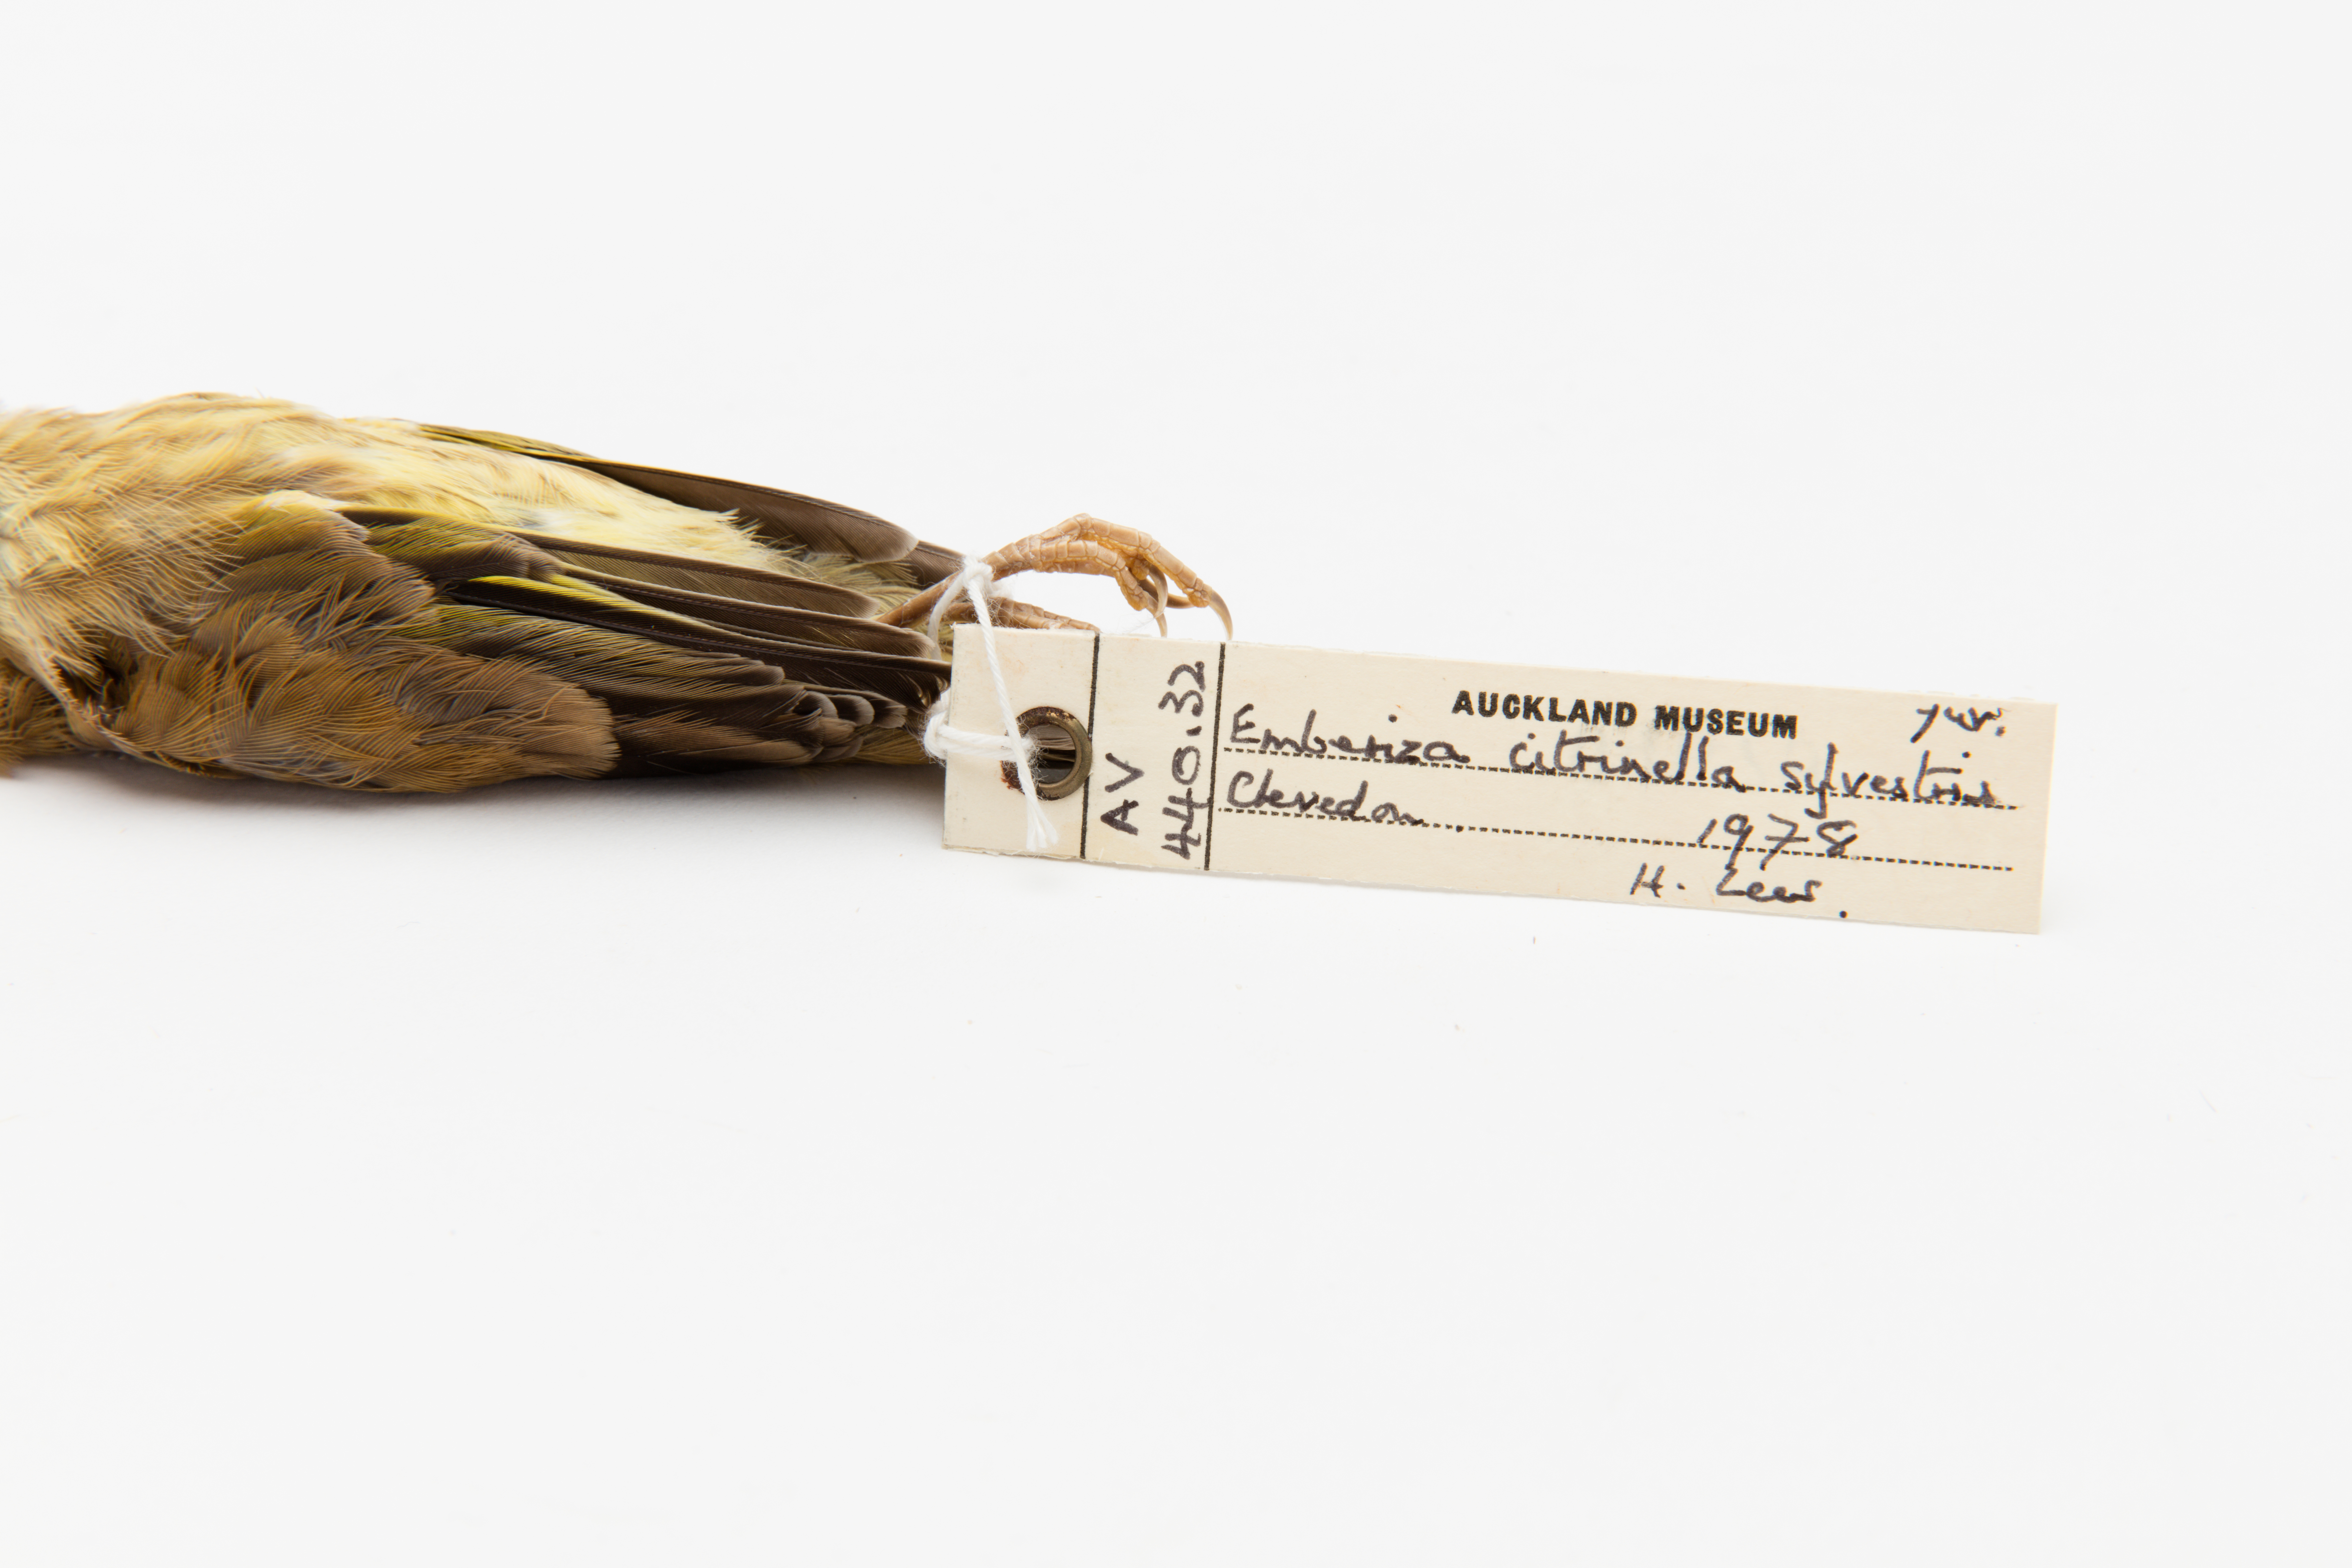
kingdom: Animalia
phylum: Chordata
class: Aves
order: Passeriformes
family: Emberizidae
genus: Emberiza
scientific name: Emberiza citrinella
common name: Yellowhammer
